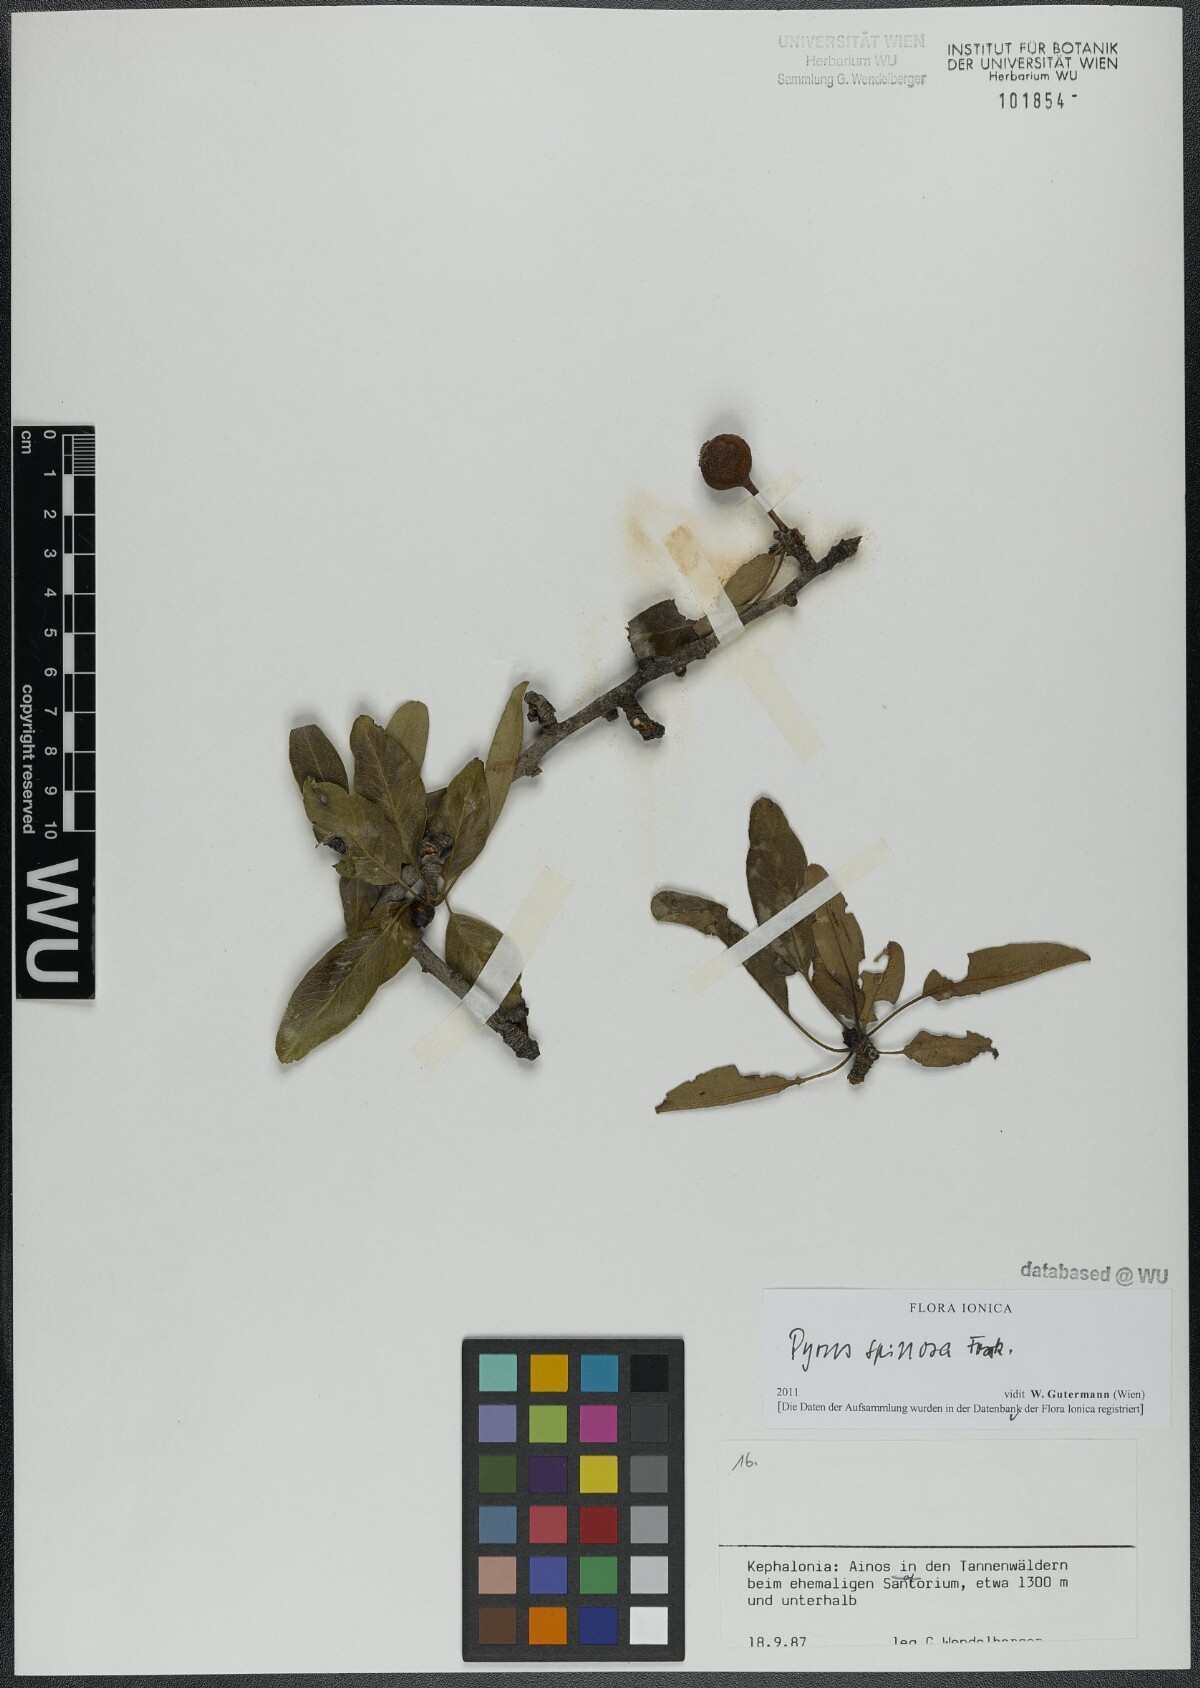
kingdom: Plantae
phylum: Tracheophyta
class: Magnoliopsida
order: Rosales
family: Rosaceae
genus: Pyrus
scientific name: Pyrus spinosa
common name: Almond-leaf pear
